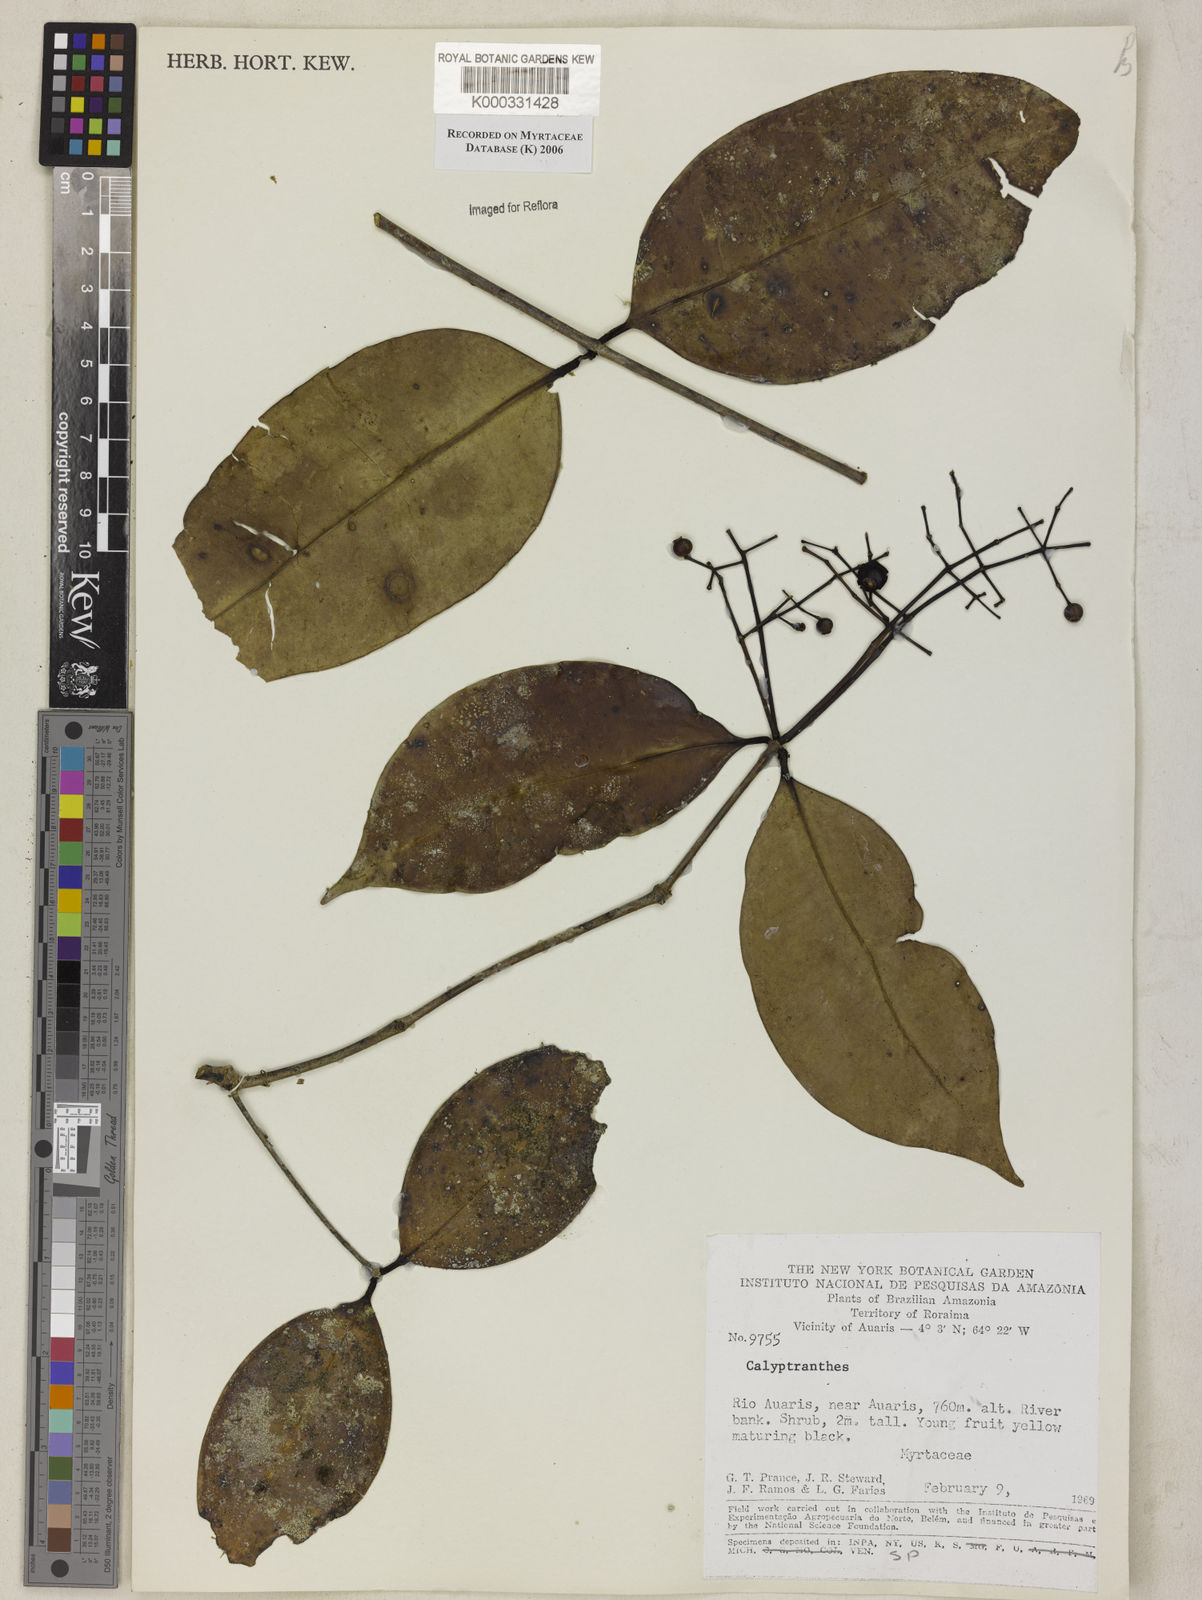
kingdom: Plantae
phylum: Tracheophyta
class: Magnoliopsida
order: Myrtales
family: Myrtaceae
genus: Calyptranthes
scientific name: Calyptranthes
